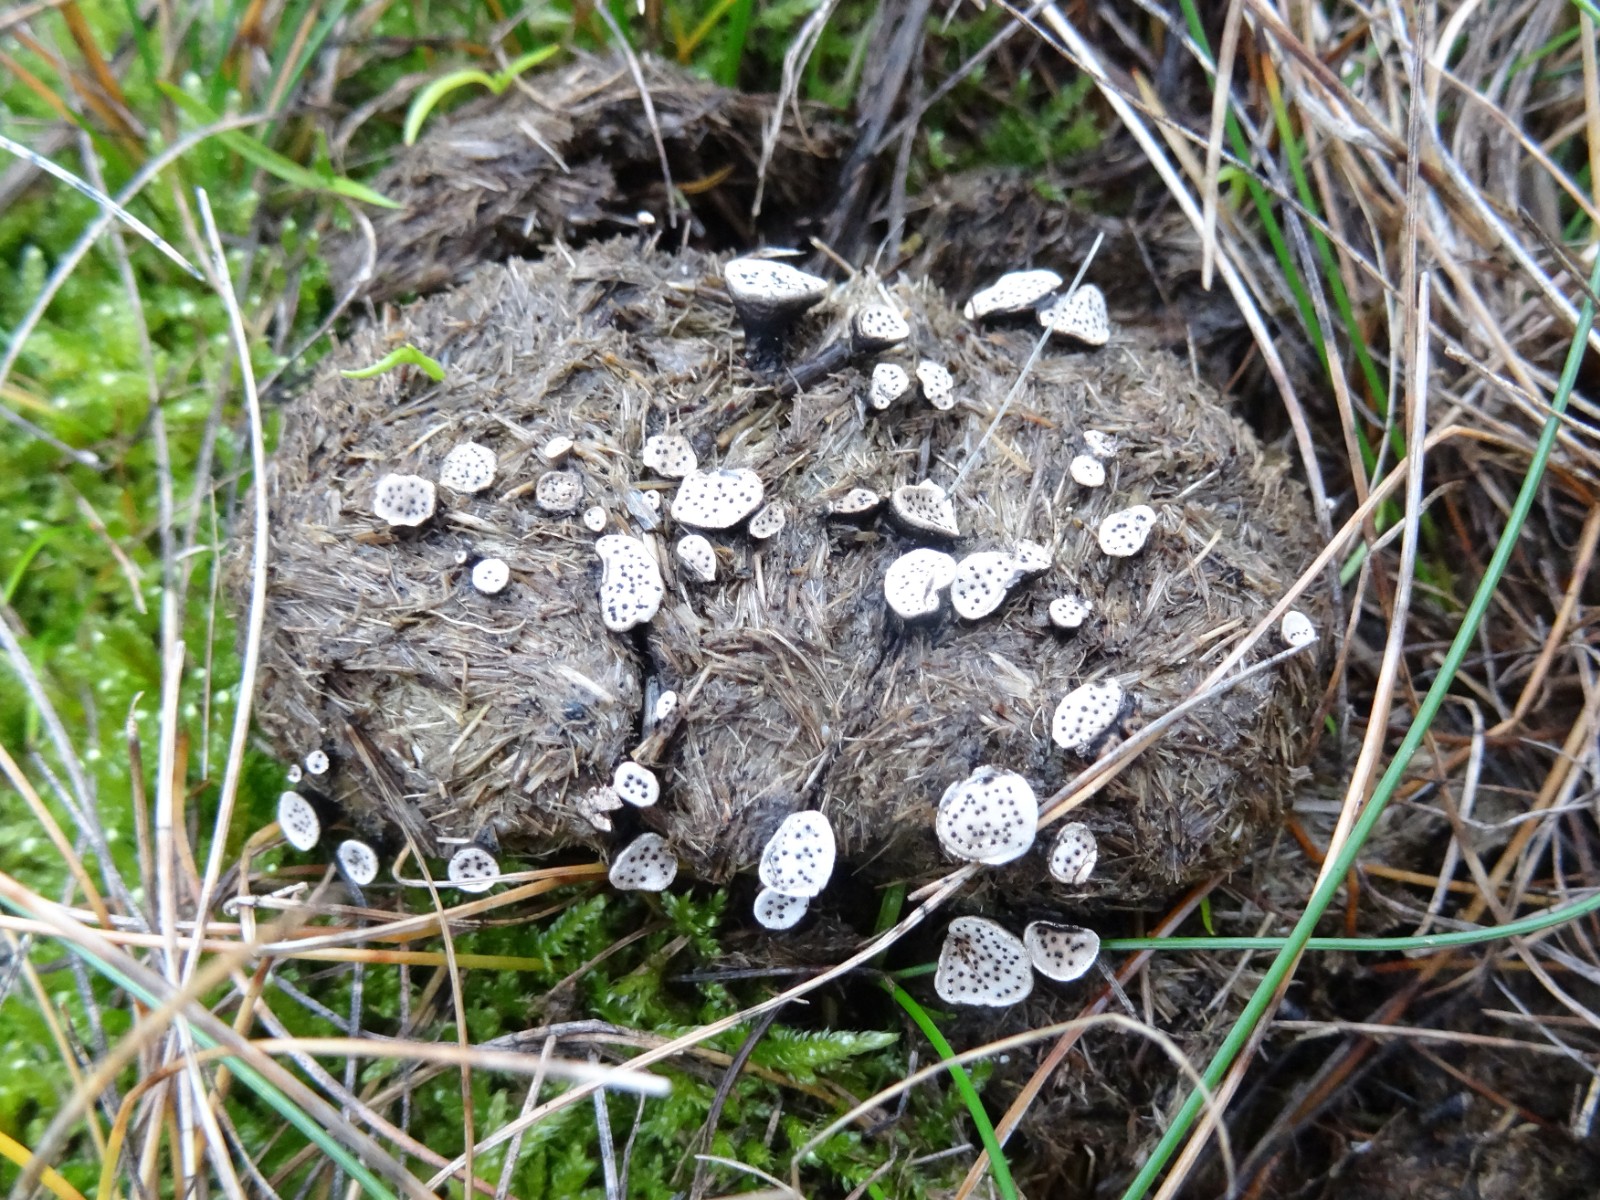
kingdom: Fungi
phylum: Ascomycota
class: Sordariomycetes
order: Xylariales
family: Xylariaceae
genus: Poronia
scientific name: Poronia punctata
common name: stor priksvamp
